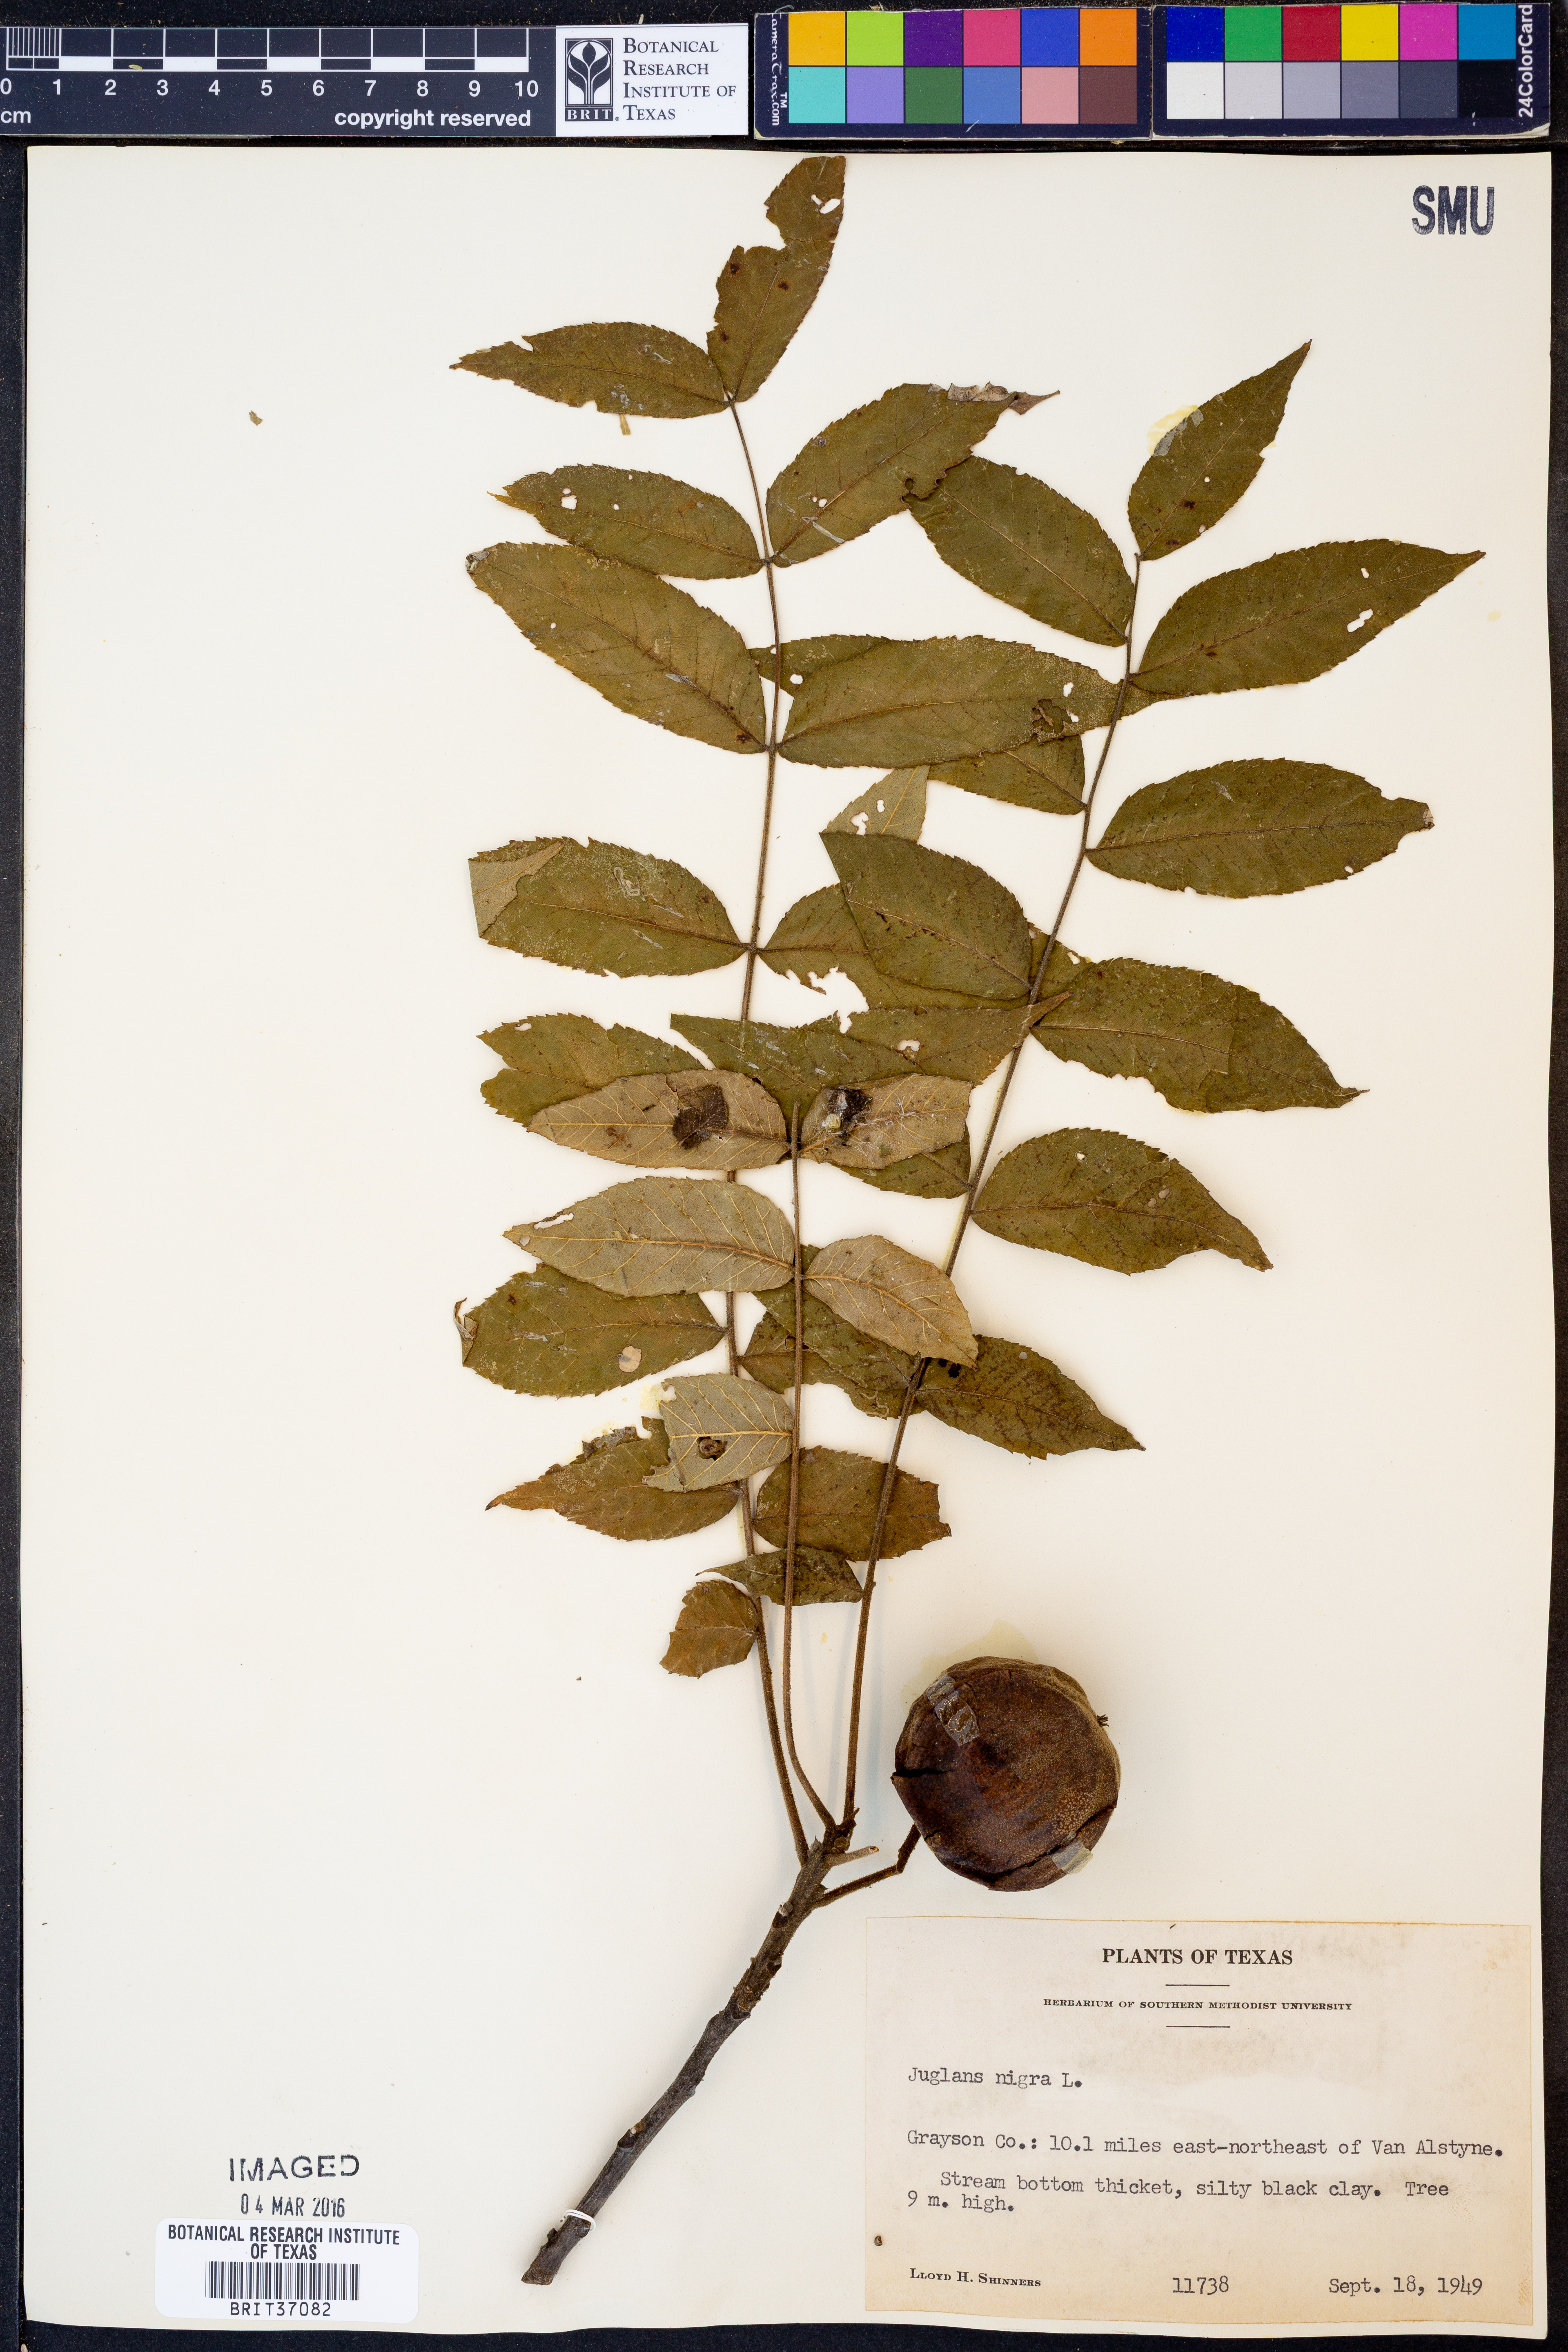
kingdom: Plantae
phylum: Tracheophyta
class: Magnoliopsida
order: Fagales
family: Juglandaceae
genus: Juglans
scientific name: Juglans nigra
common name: Black walnut
